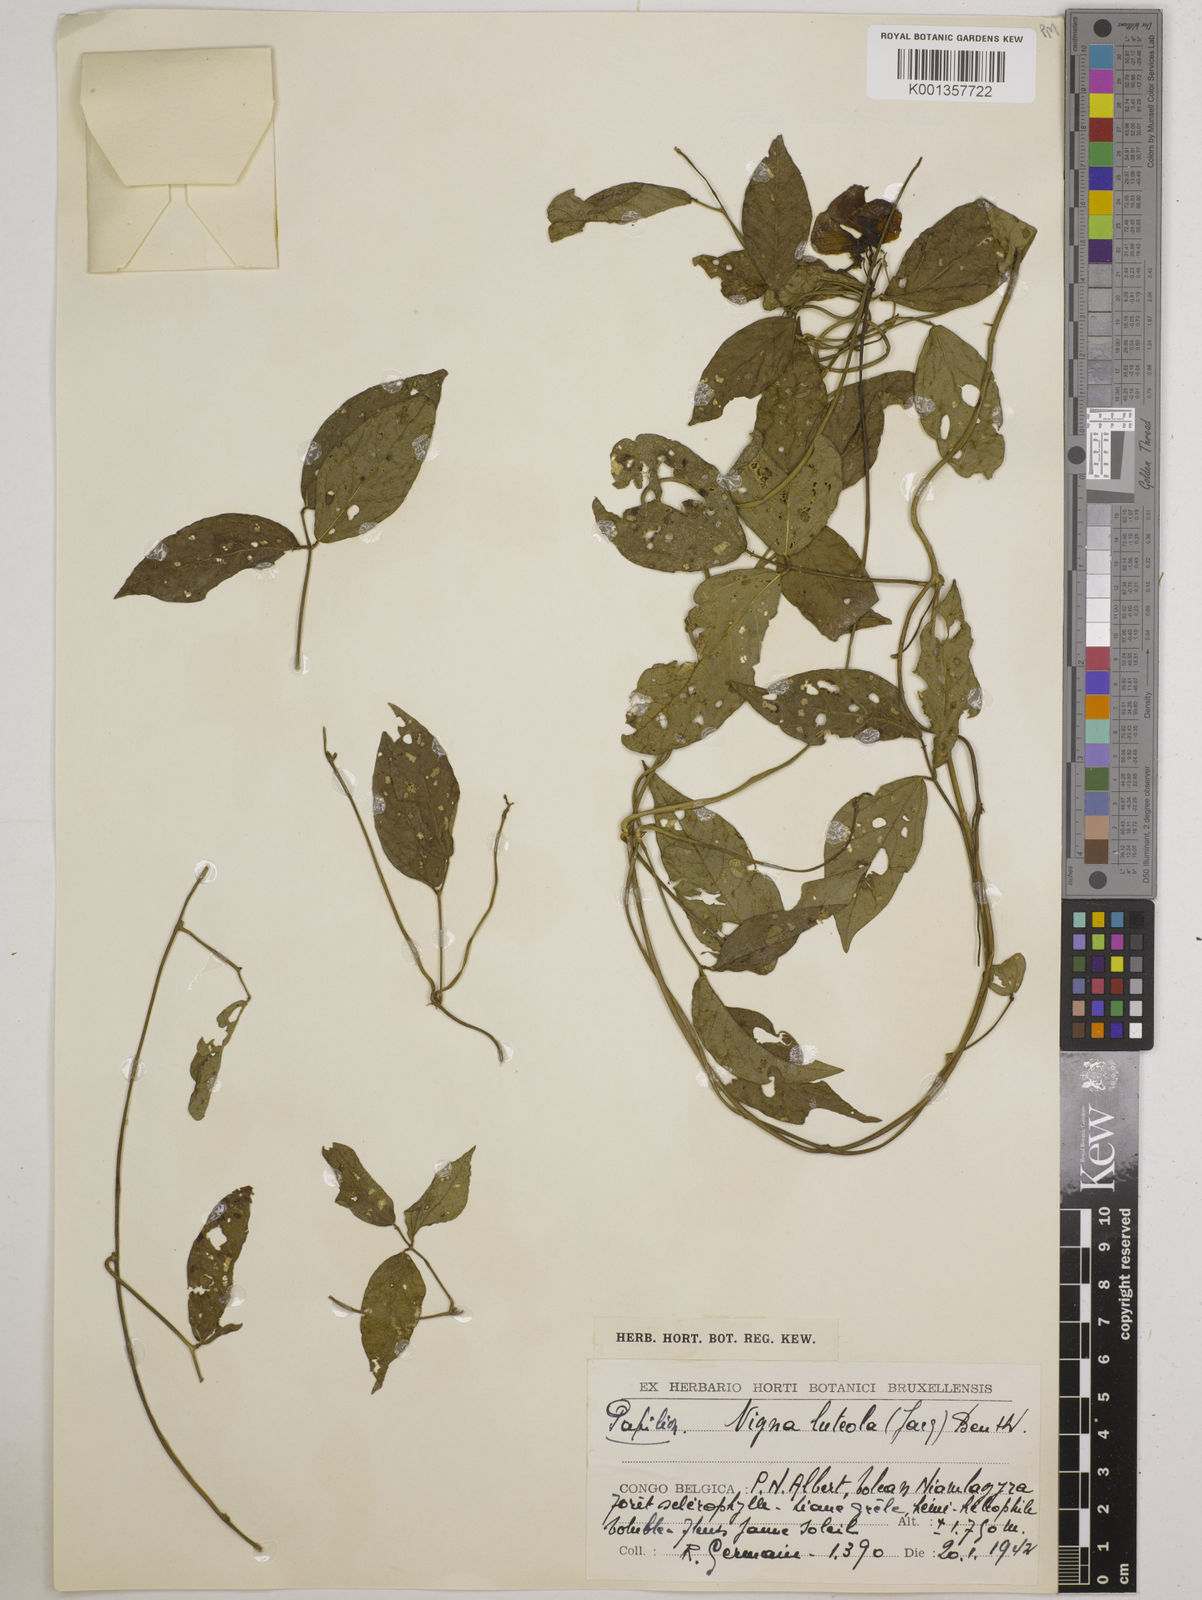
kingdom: Plantae
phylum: Tracheophyta
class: Magnoliopsida
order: Fabales
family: Fabaceae
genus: Vigna
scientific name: Vigna luteola
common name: Hairypod cowpea
